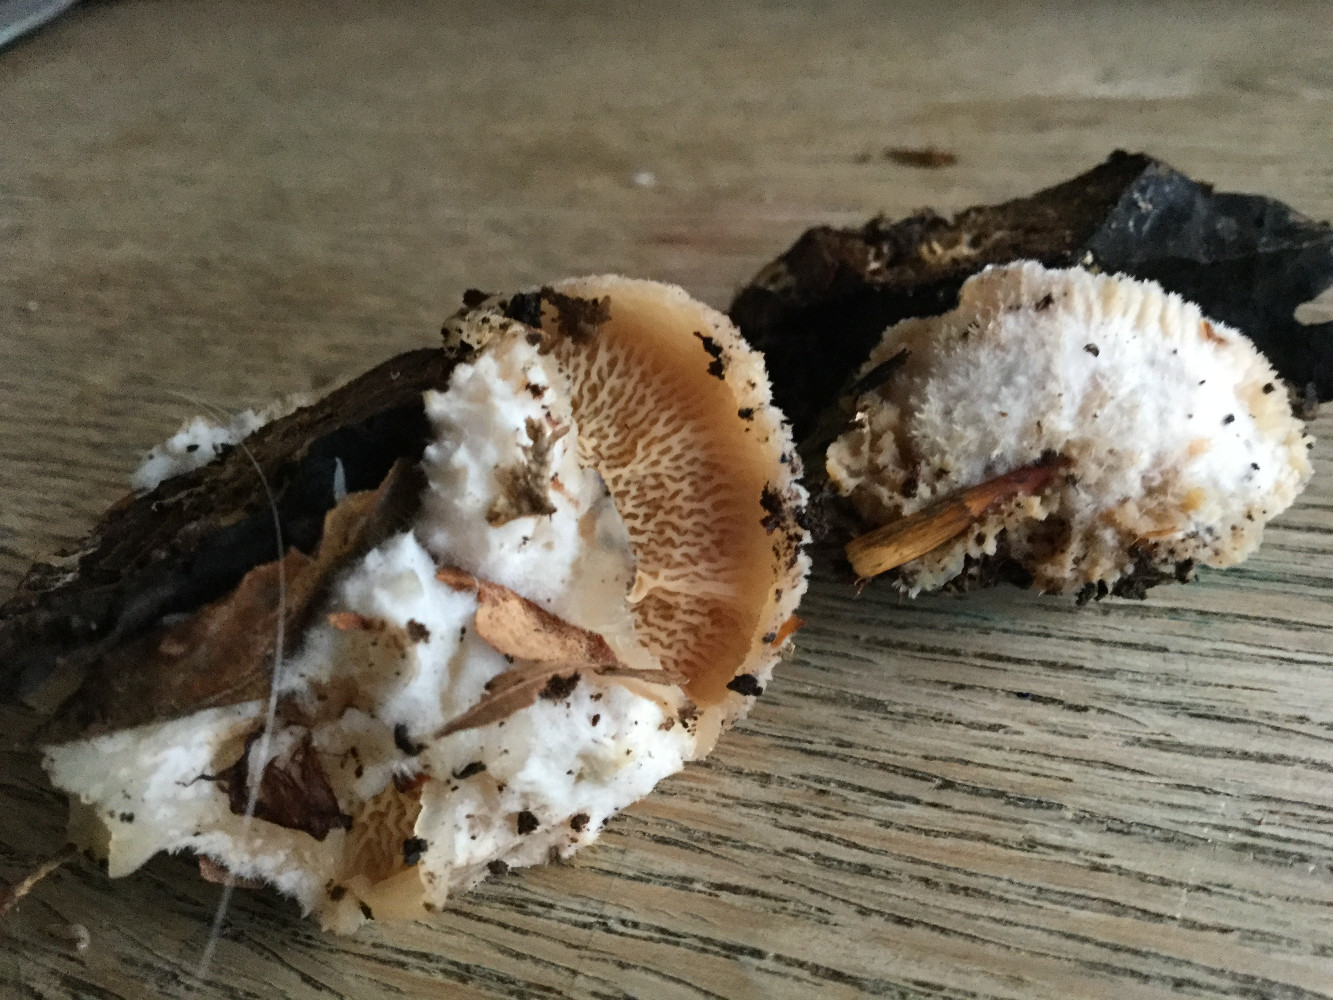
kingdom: Fungi
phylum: Basidiomycota
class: Agaricomycetes
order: Polyporales
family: Meruliaceae
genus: Phlebia
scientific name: Phlebia tremellosa
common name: bævrende åresvamp
